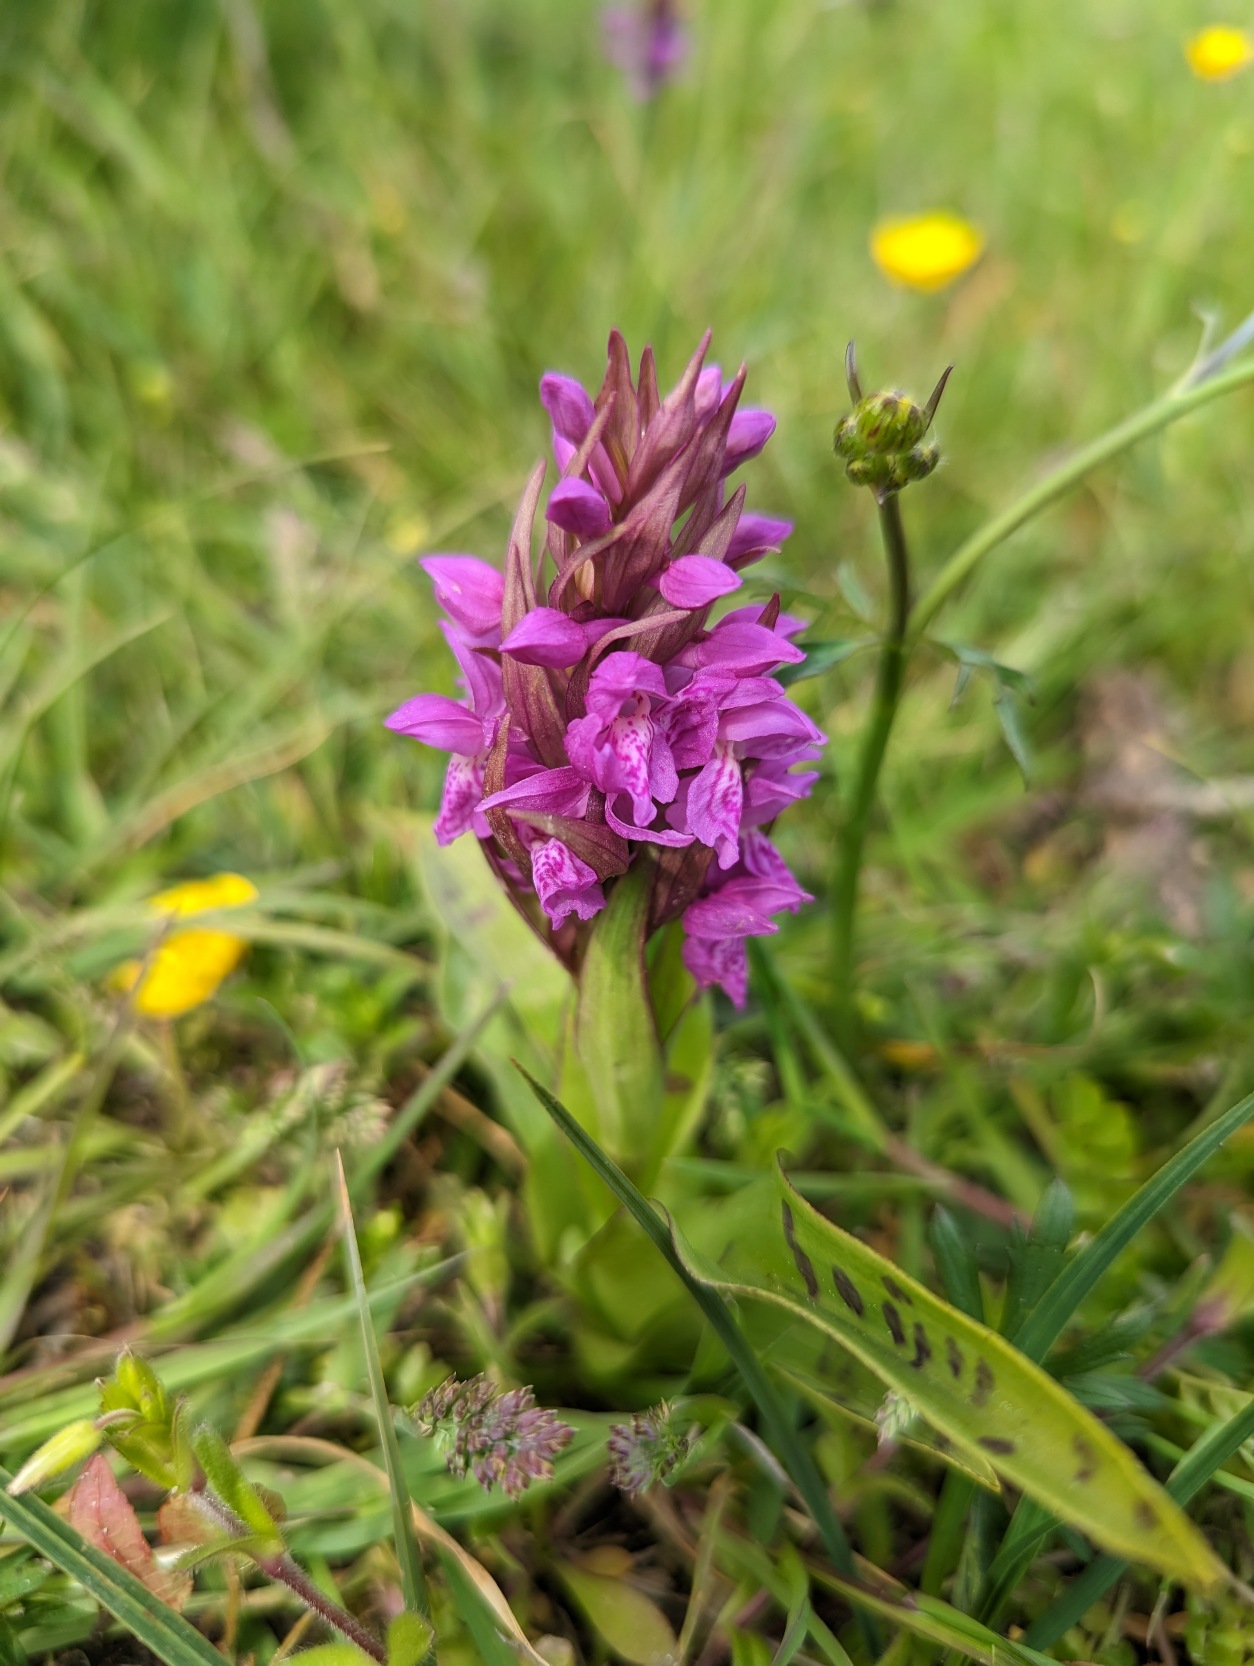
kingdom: Plantae
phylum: Tracheophyta
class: Liliopsida
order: Asparagales
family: Orchidaceae
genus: Dactylorhiza
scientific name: Dactylorhiza majalis
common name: Maj-gøgeurt
